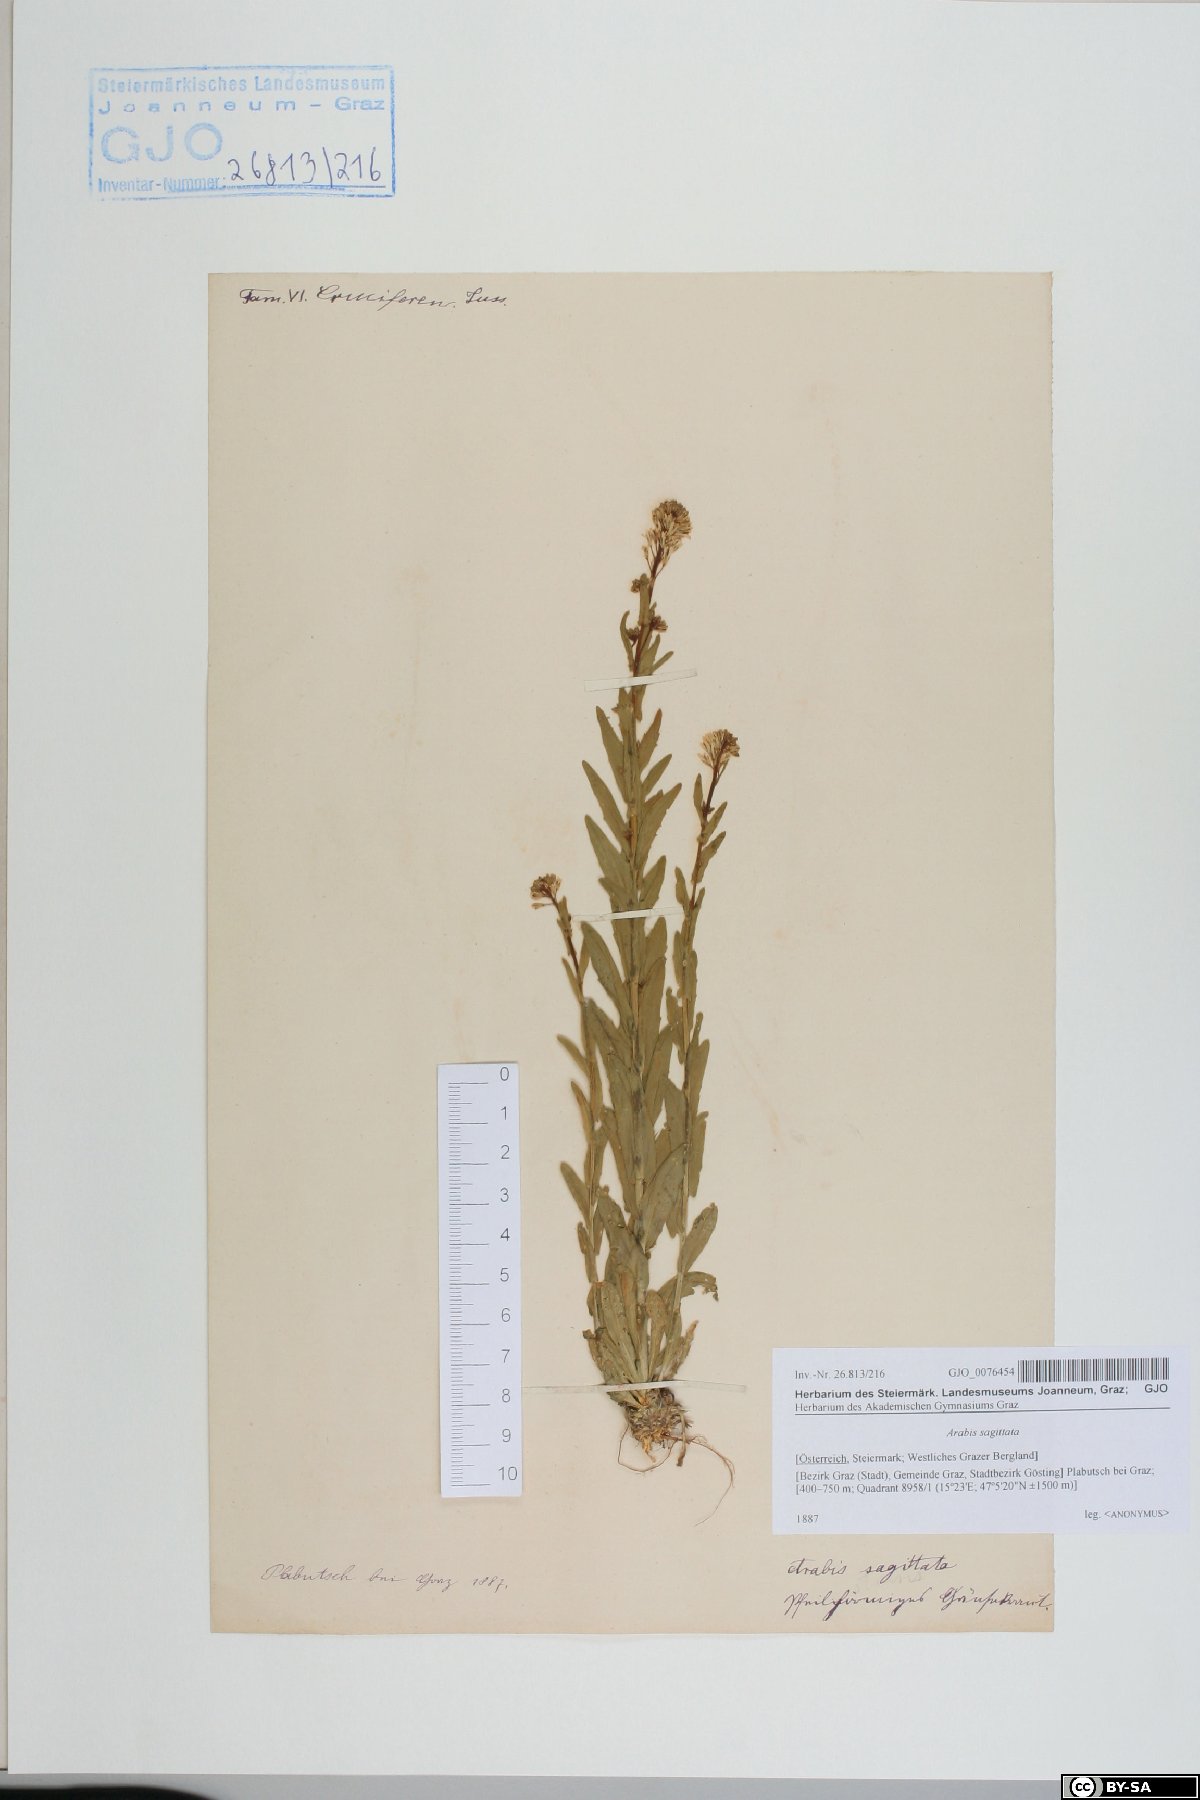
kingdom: Plantae
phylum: Tracheophyta
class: Magnoliopsida
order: Brassicales
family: Brassicaceae
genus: Arabis
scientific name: Arabis sagittata
